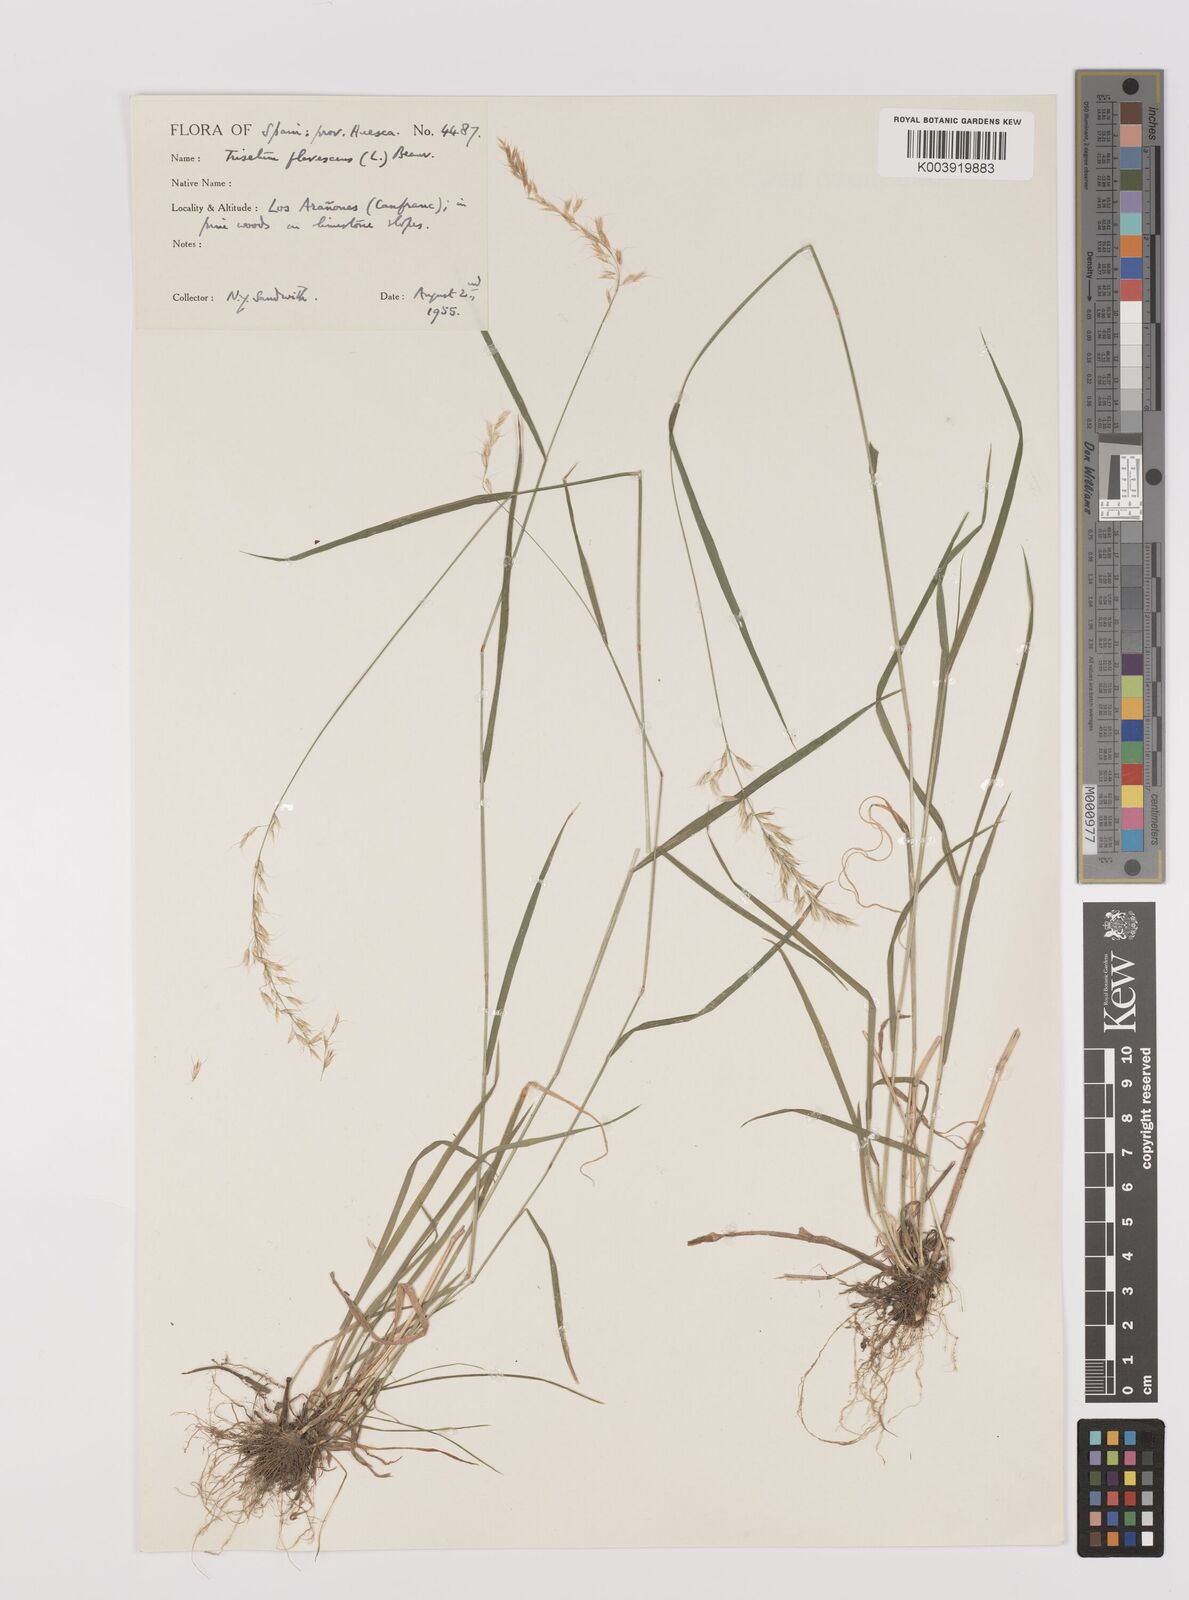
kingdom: Plantae
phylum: Tracheophyta
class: Liliopsida
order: Poales
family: Poaceae
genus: Trisetum
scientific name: Trisetum flavescens
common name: Yellow oat-grass
